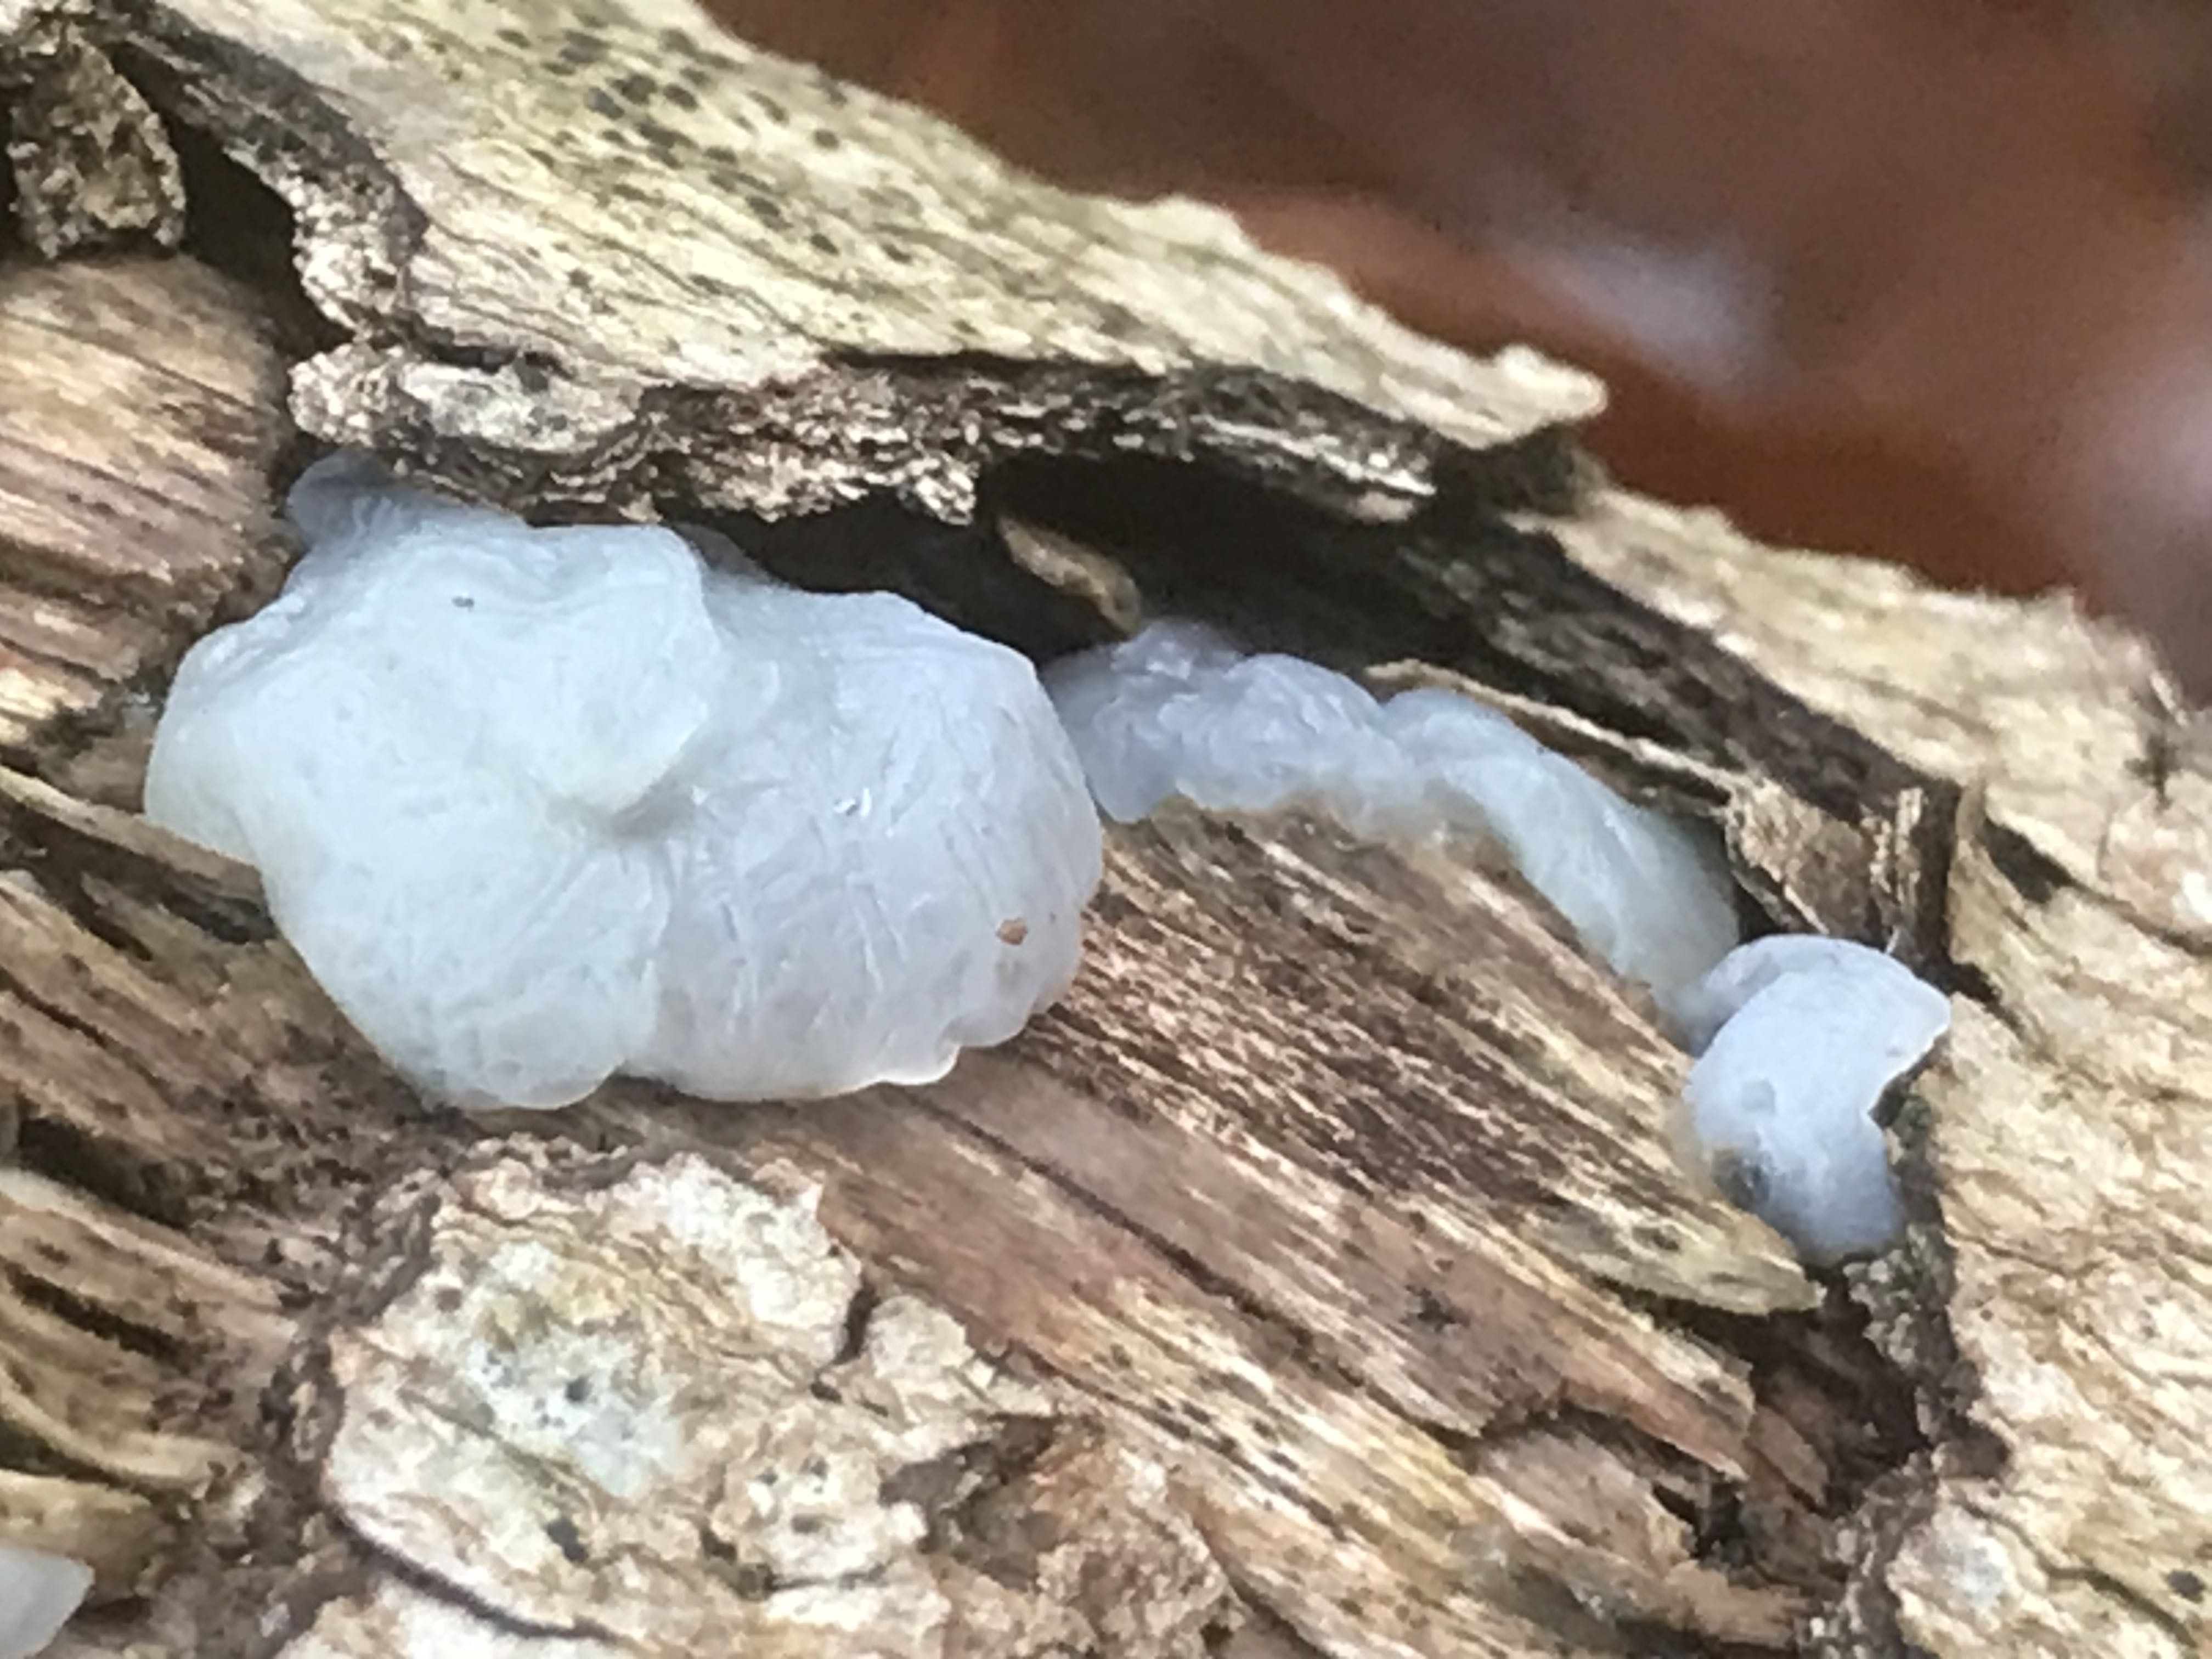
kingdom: Fungi
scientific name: Fungi
